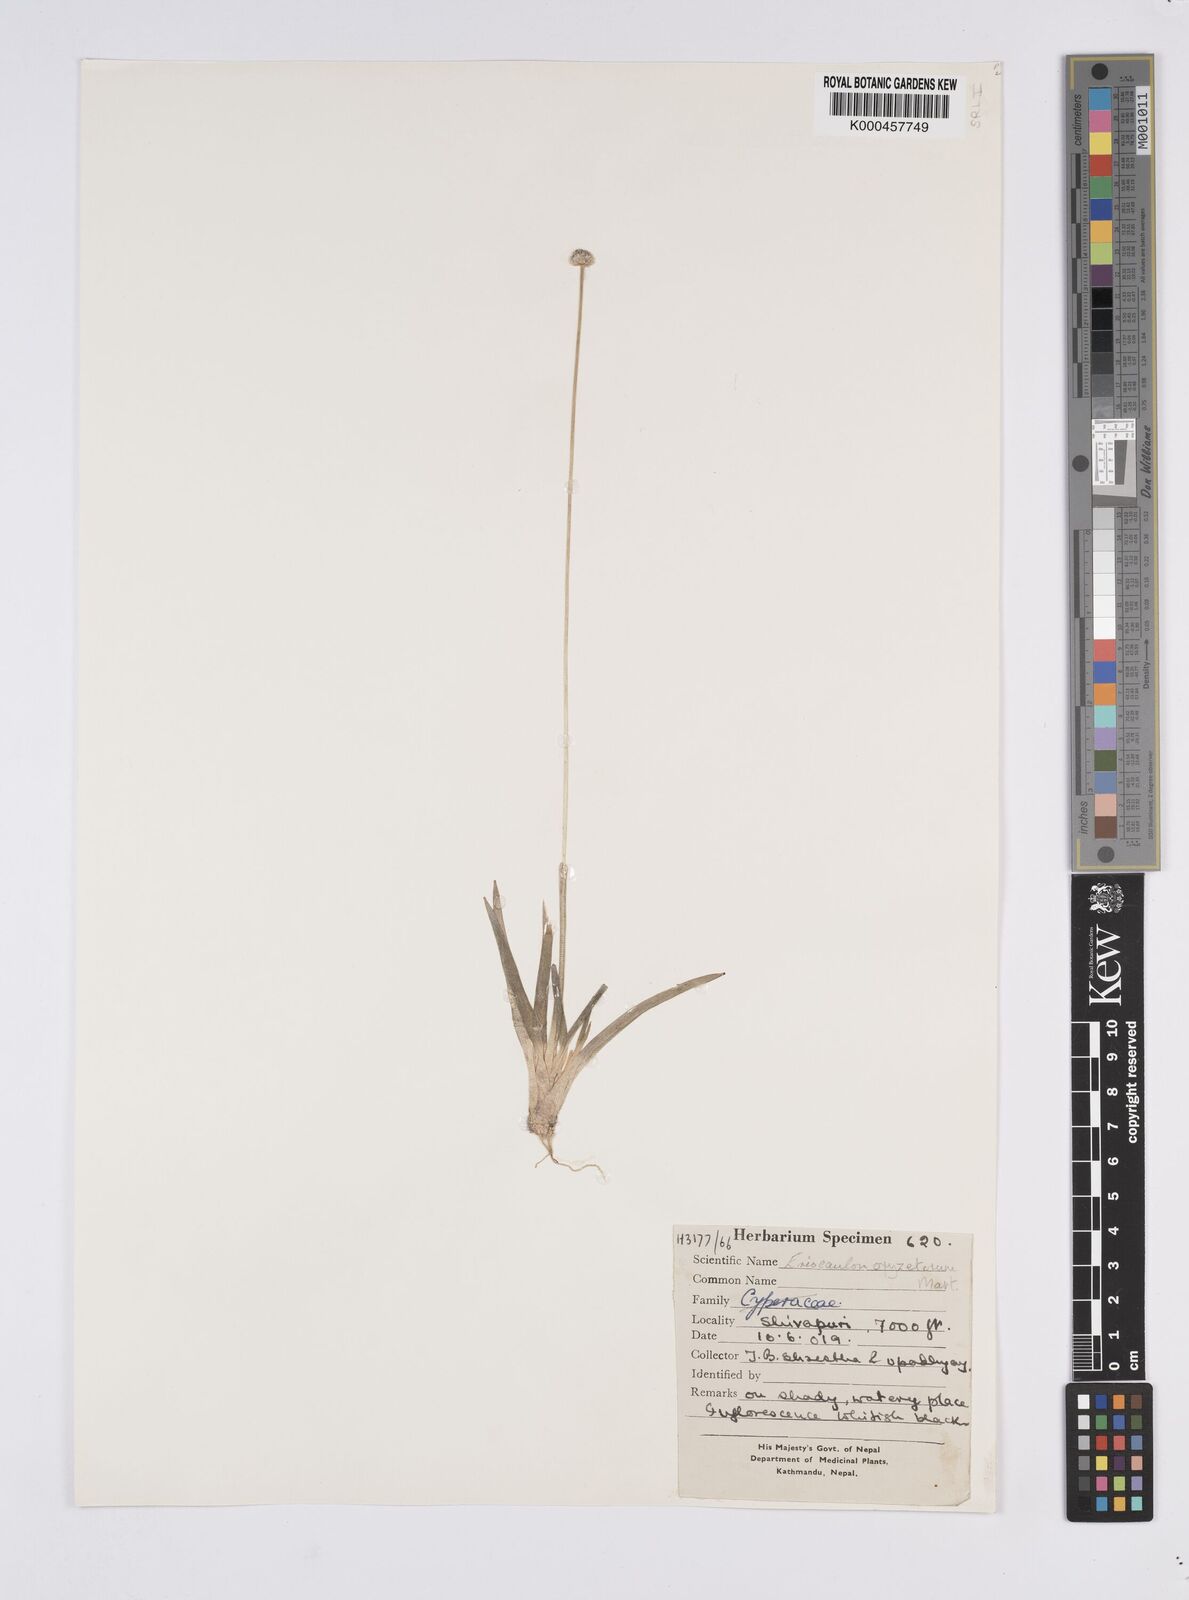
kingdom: Plantae
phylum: Tracheophyta
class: Liliopsida
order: Poales
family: Eriocaulaceae
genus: Eriocaulon
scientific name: Eriocaulon oryzetorum
